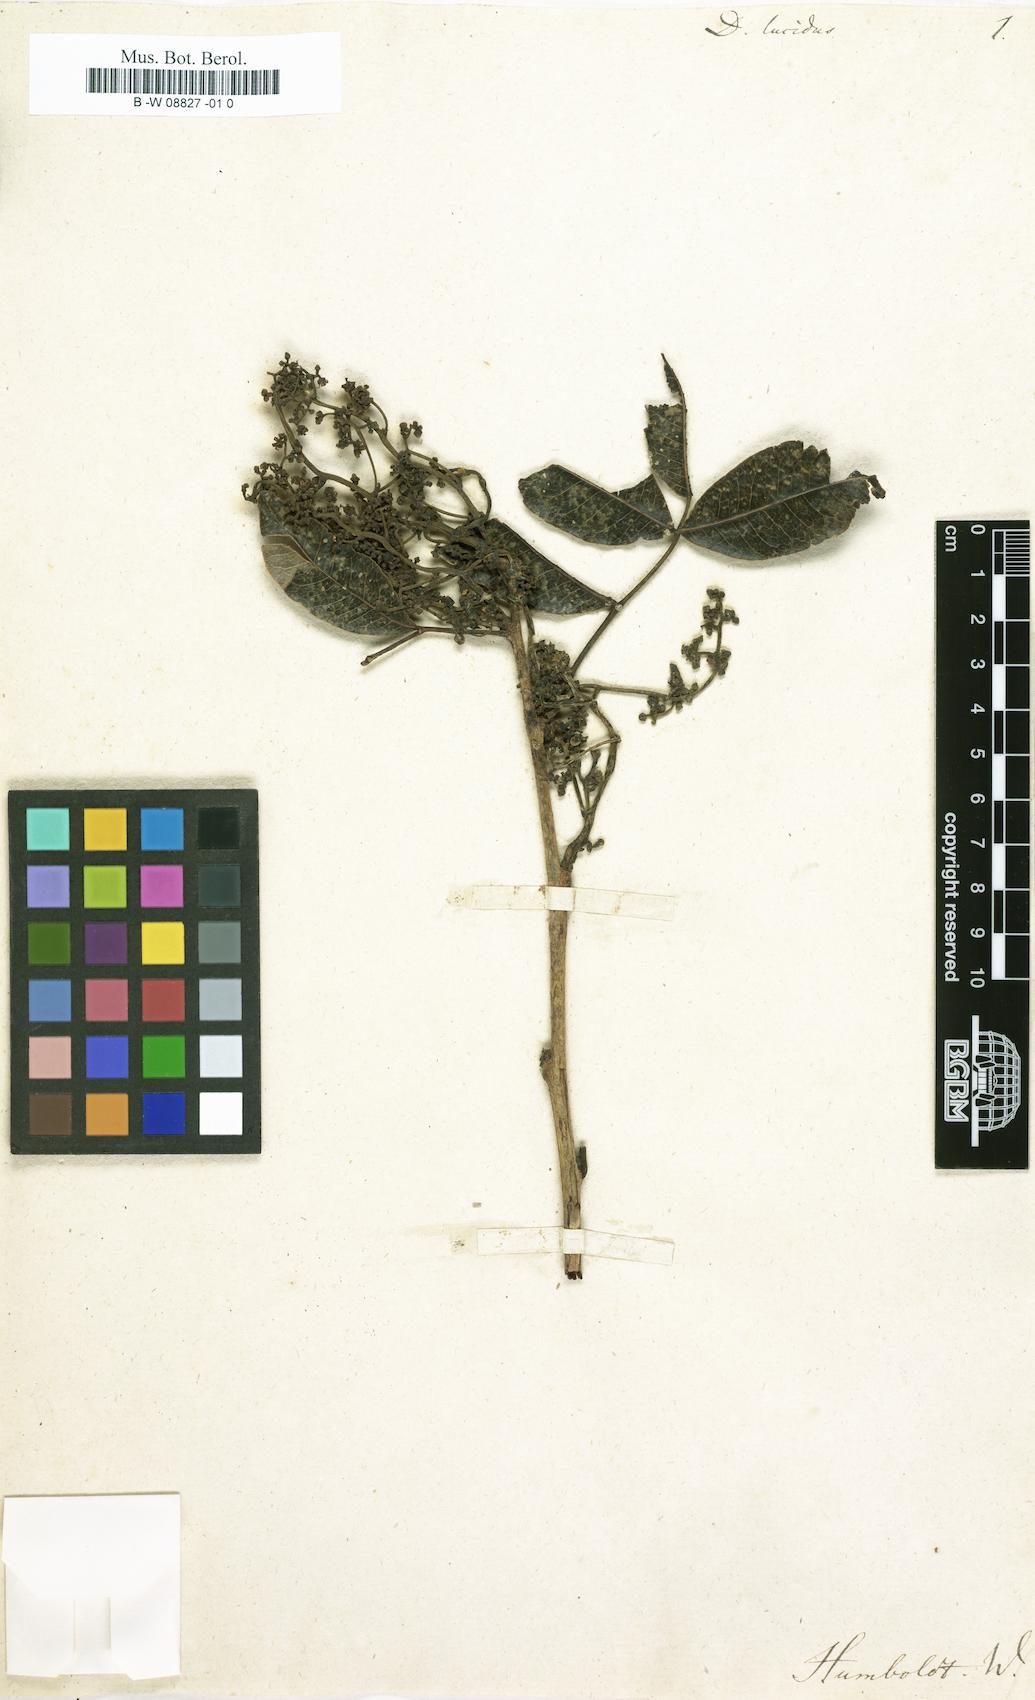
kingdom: Plantae
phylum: Tracheophyta
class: Magnoliopsida
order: Sapindales
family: Anacardiaceae
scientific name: Anacardiaceae
